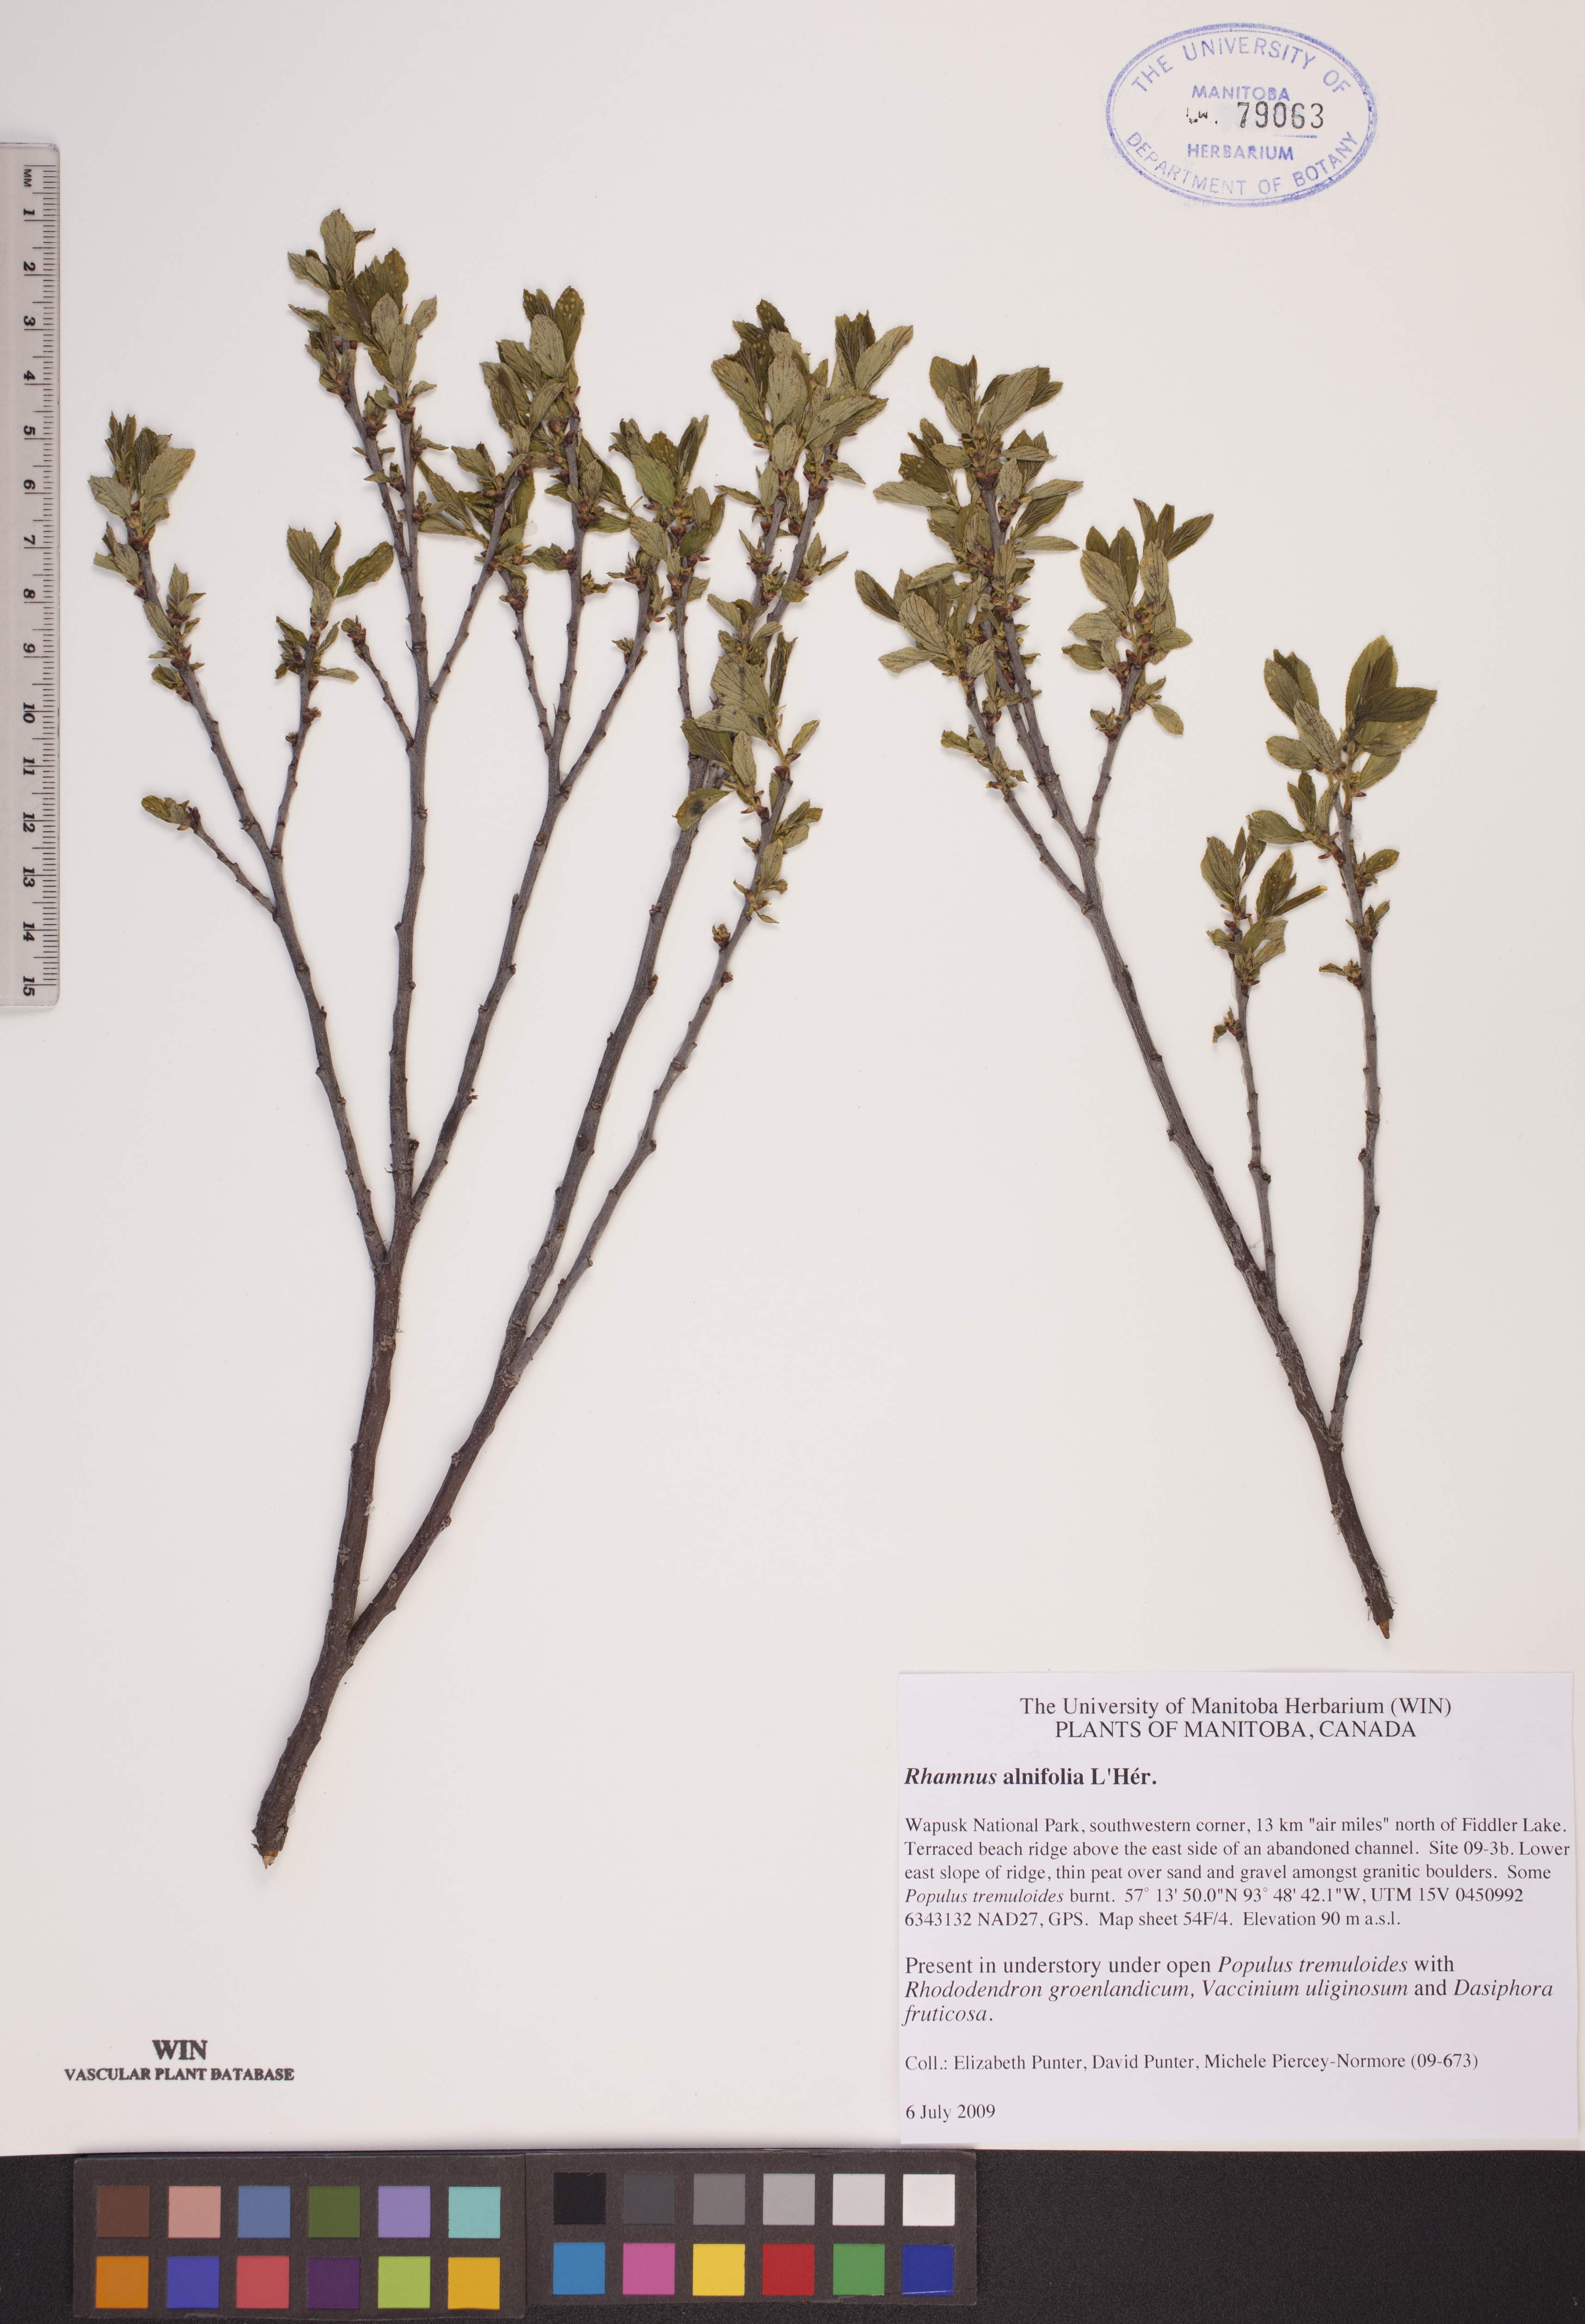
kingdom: Plantae
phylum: Tracheophyta
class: Magnoliopsida
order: Rosales
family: Rhamnaceae
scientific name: Rhamnaceae
